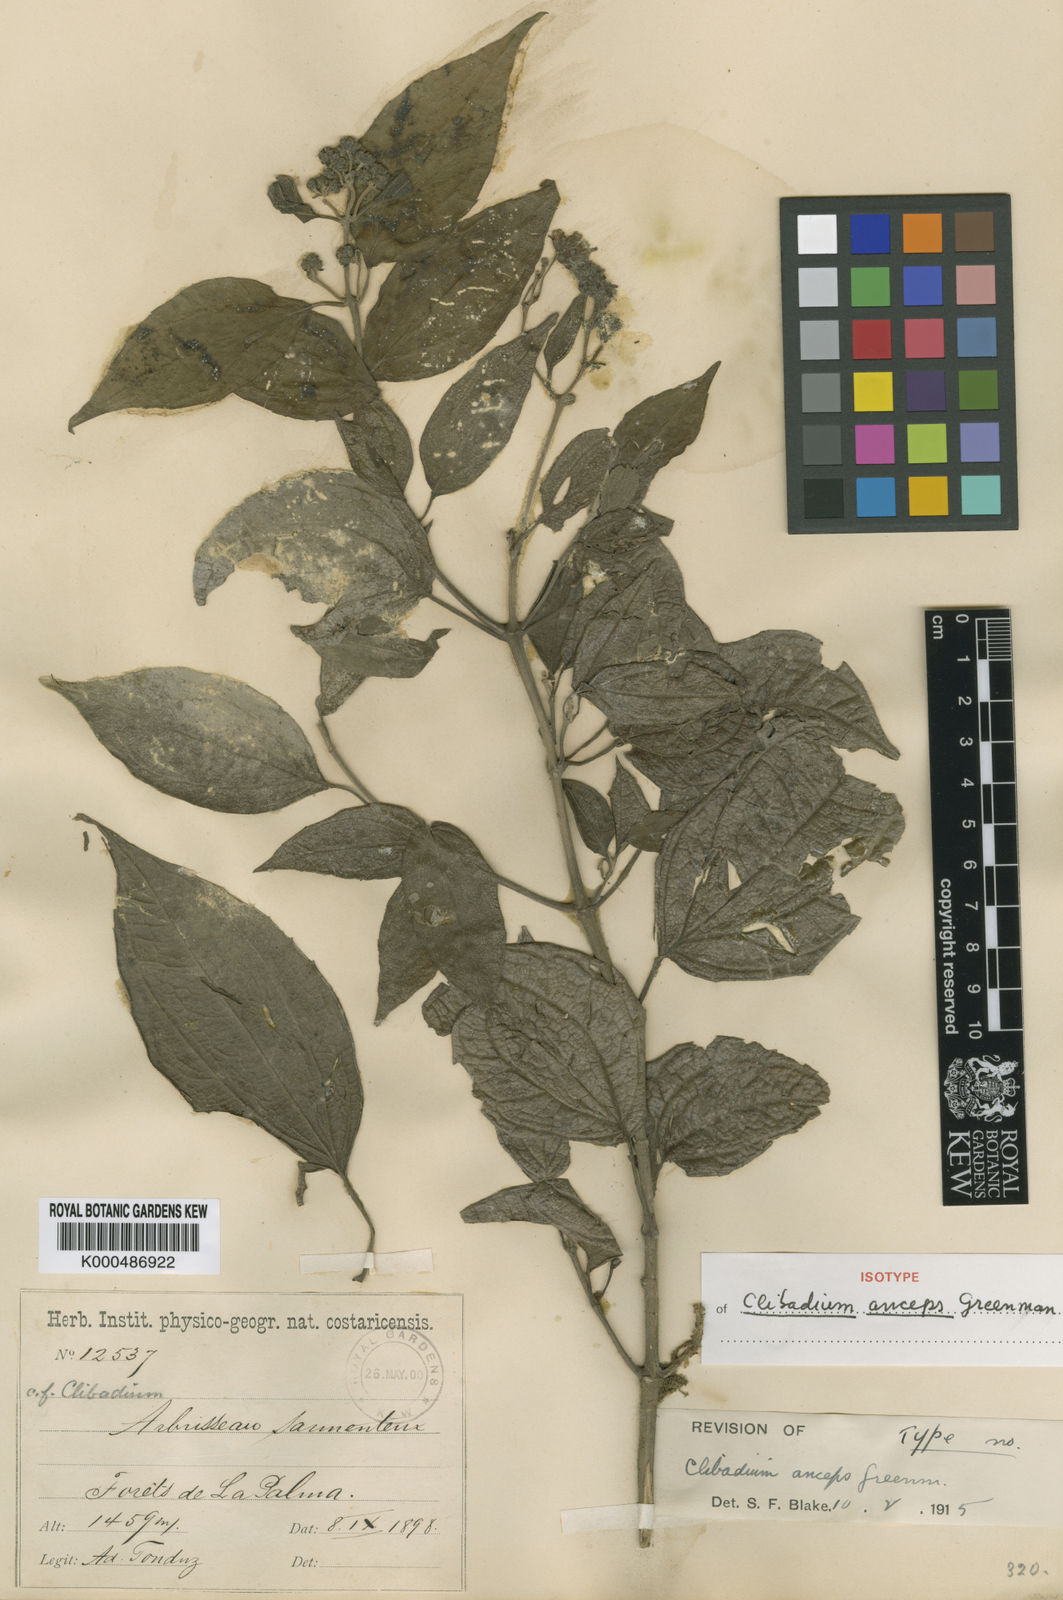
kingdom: Plantae
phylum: Tracheophyta
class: Magnoliopsida
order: Asterales
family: Asteraceae
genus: Clibadium
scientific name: Clibadium anceps
